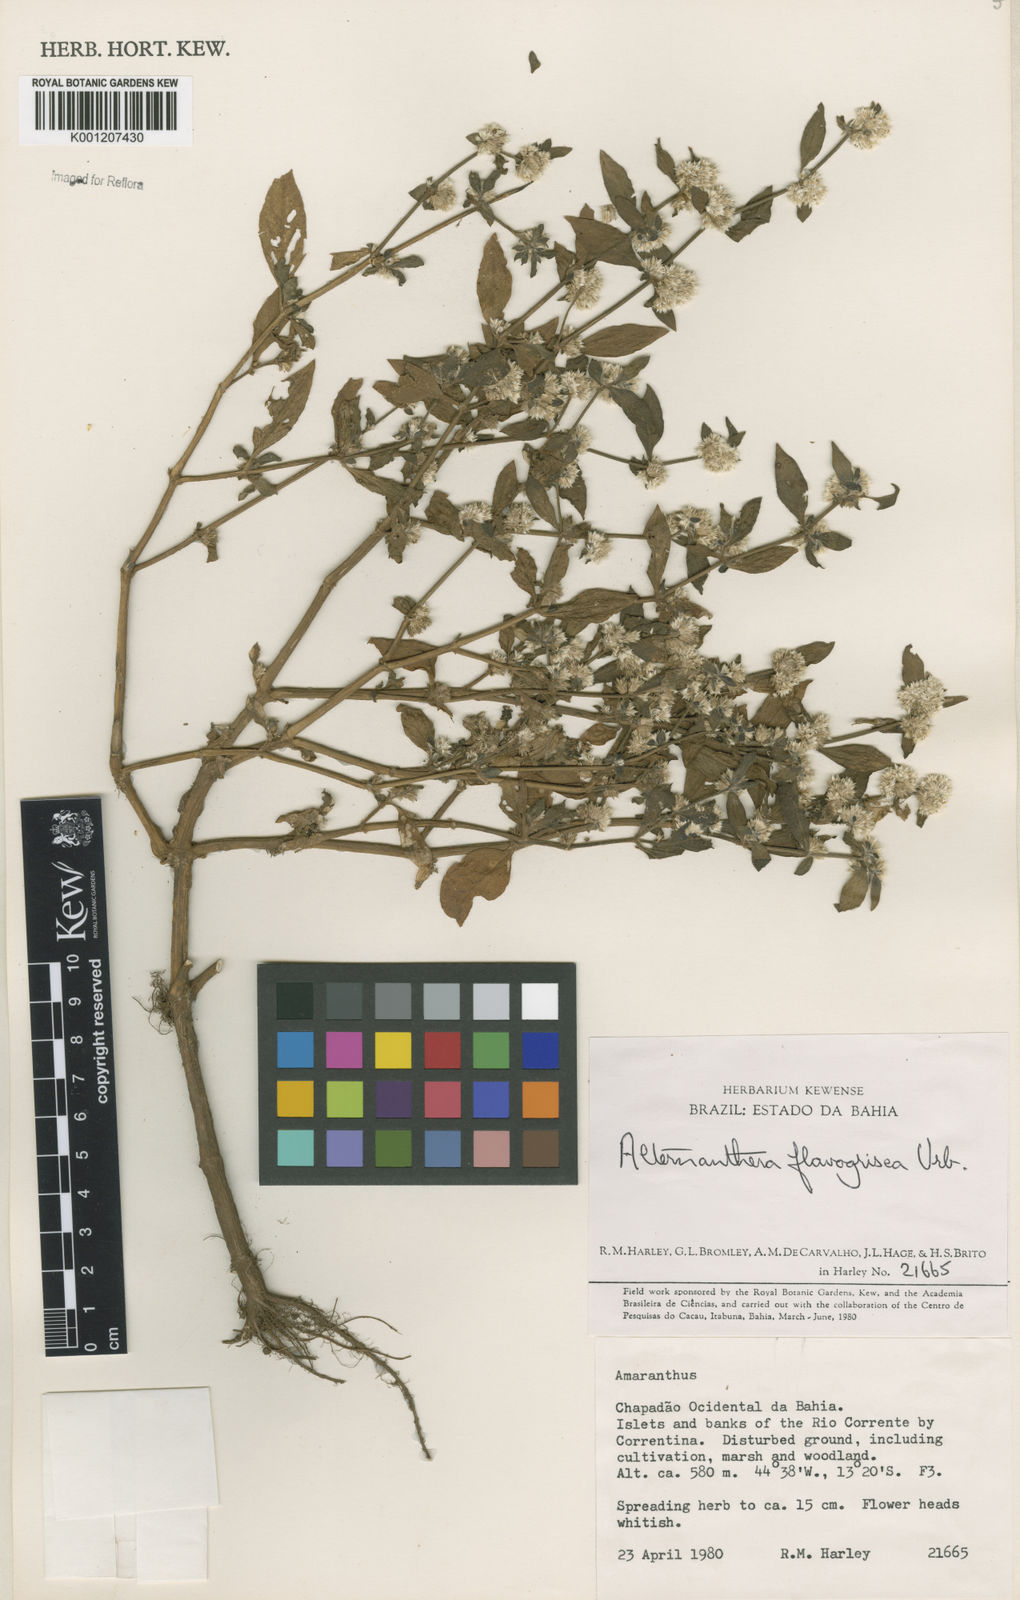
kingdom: Plantae
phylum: Tracheophyta
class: Magnoliopsida
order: Caryophyllales
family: Amaranthaceae
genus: Alternanthera
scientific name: Alternanthera halimifolia
